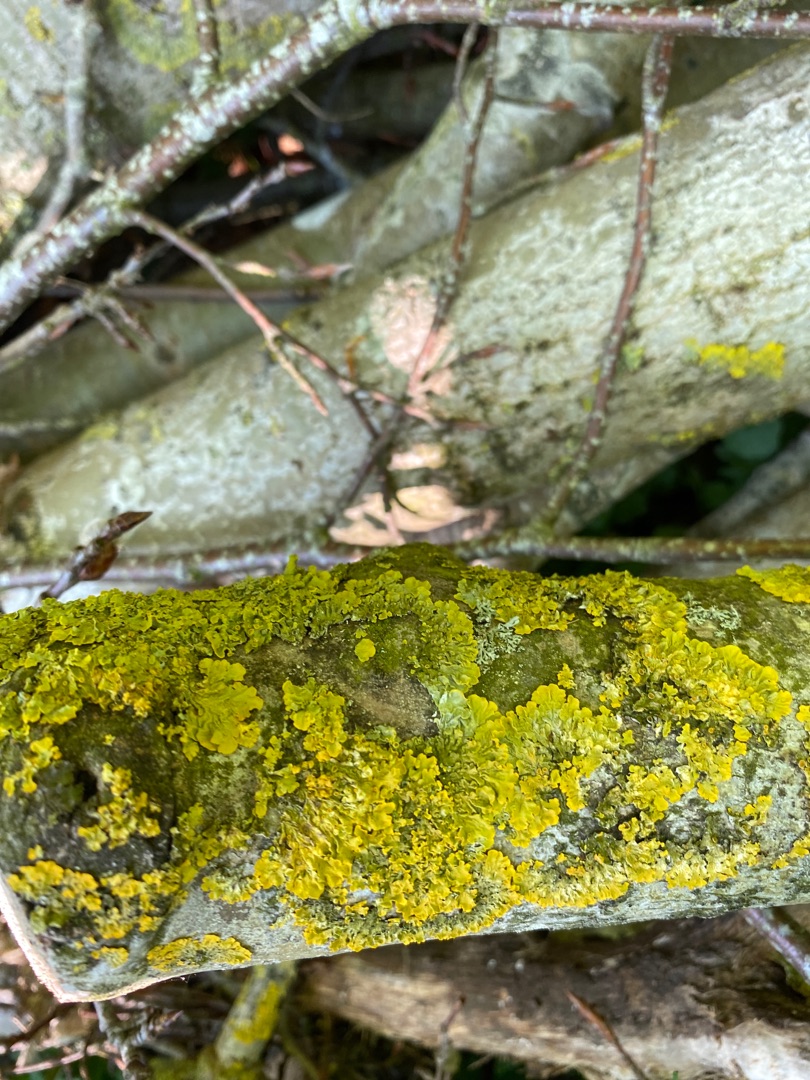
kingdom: Fungi
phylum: Ascomycota
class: Lecanoromycetes
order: Teloschistales
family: Teloschistaceae
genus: Xanthoria
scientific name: Xanthoria parietina
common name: Almindelig væggelav
